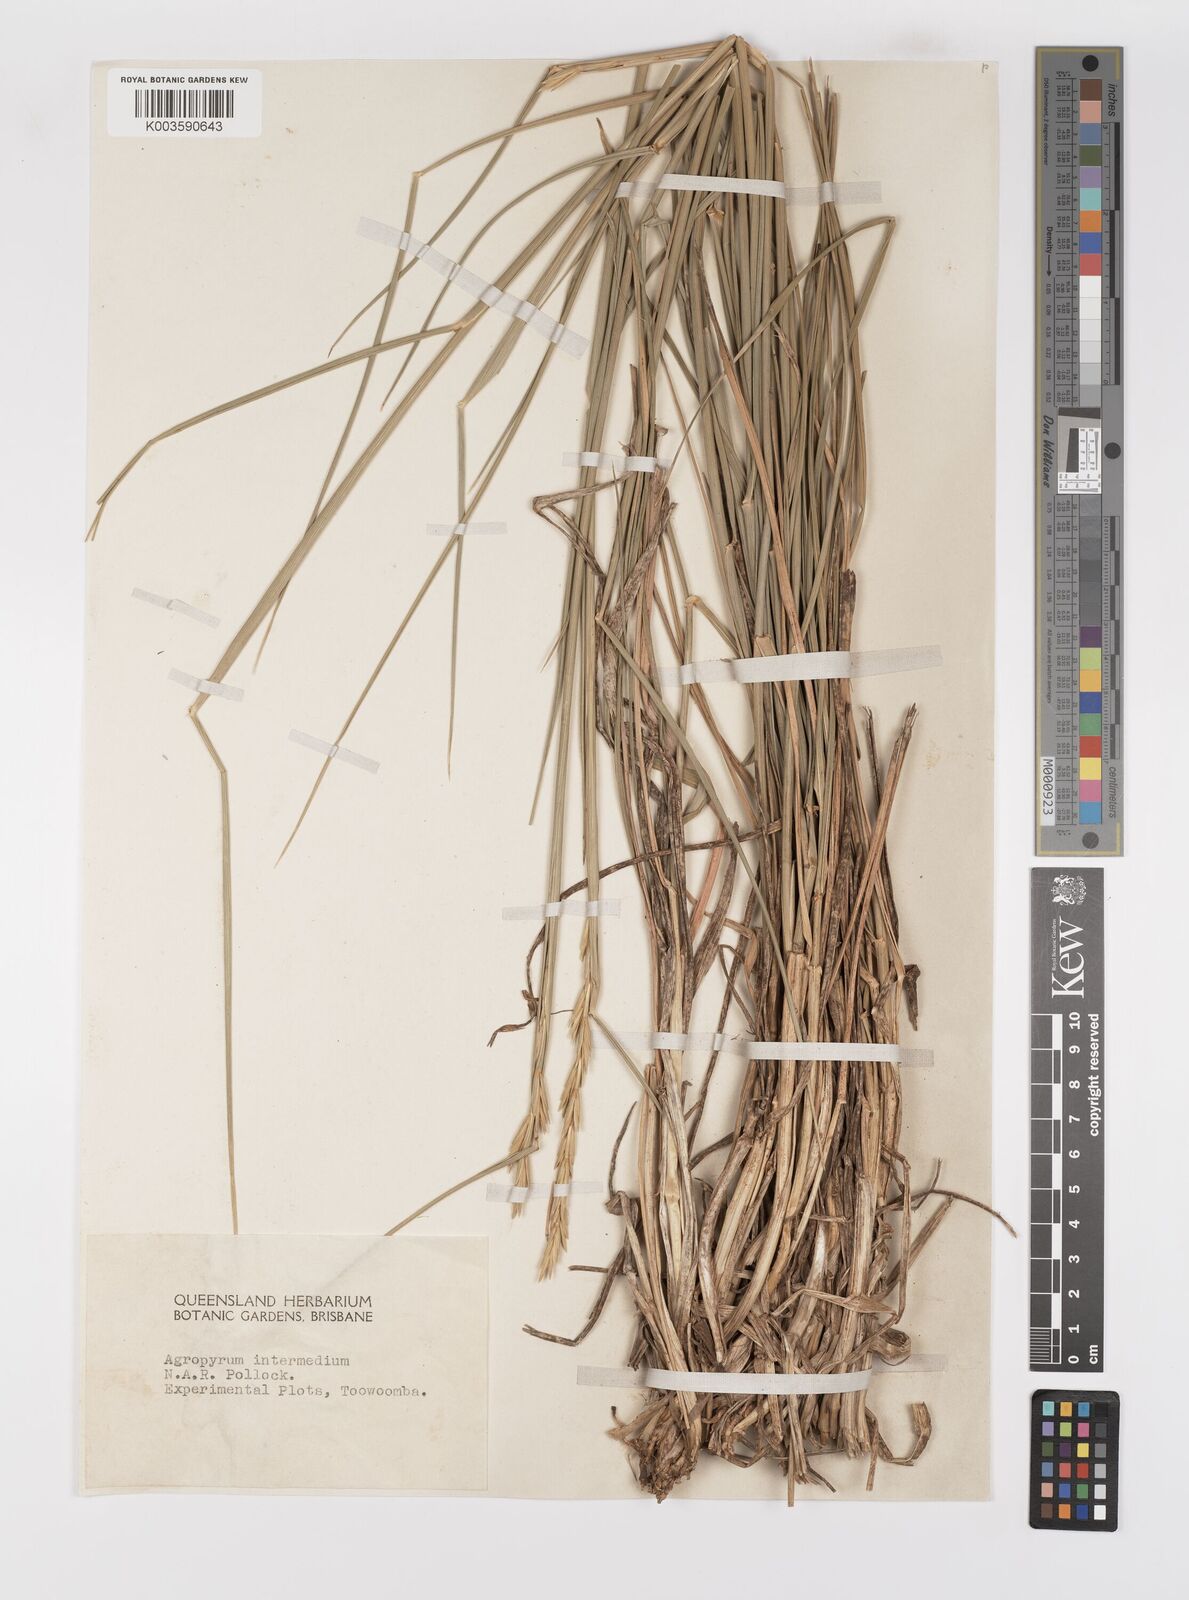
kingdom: Plantae
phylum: Tracheophyta
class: Liliopsida
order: Poales
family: Poaceae
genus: Thinopyrum
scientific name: Thinopyrum intermedium
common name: Intermediate wheatgrass
